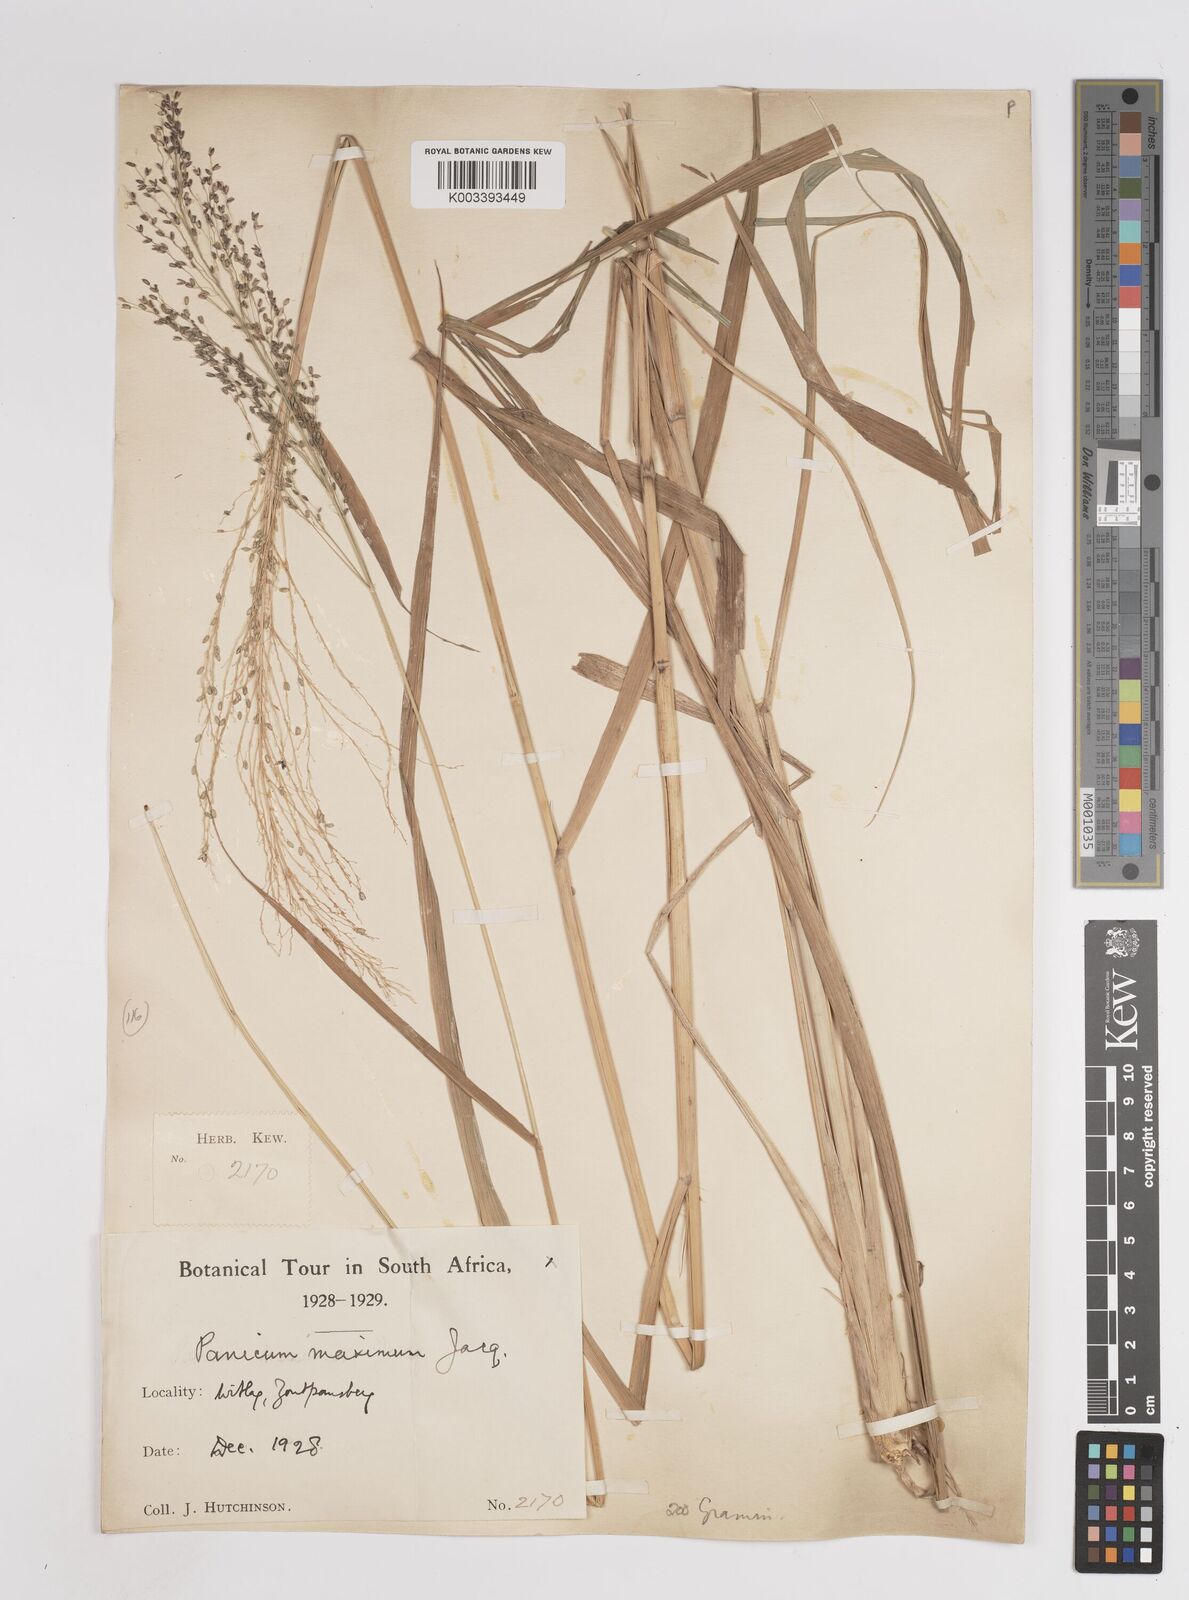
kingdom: Plantae
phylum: Tracheophyta
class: Liliopsida
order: Poales
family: Poaceae
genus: Megathyrsus
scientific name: Megathyrsus maximus
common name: Guineagrass
